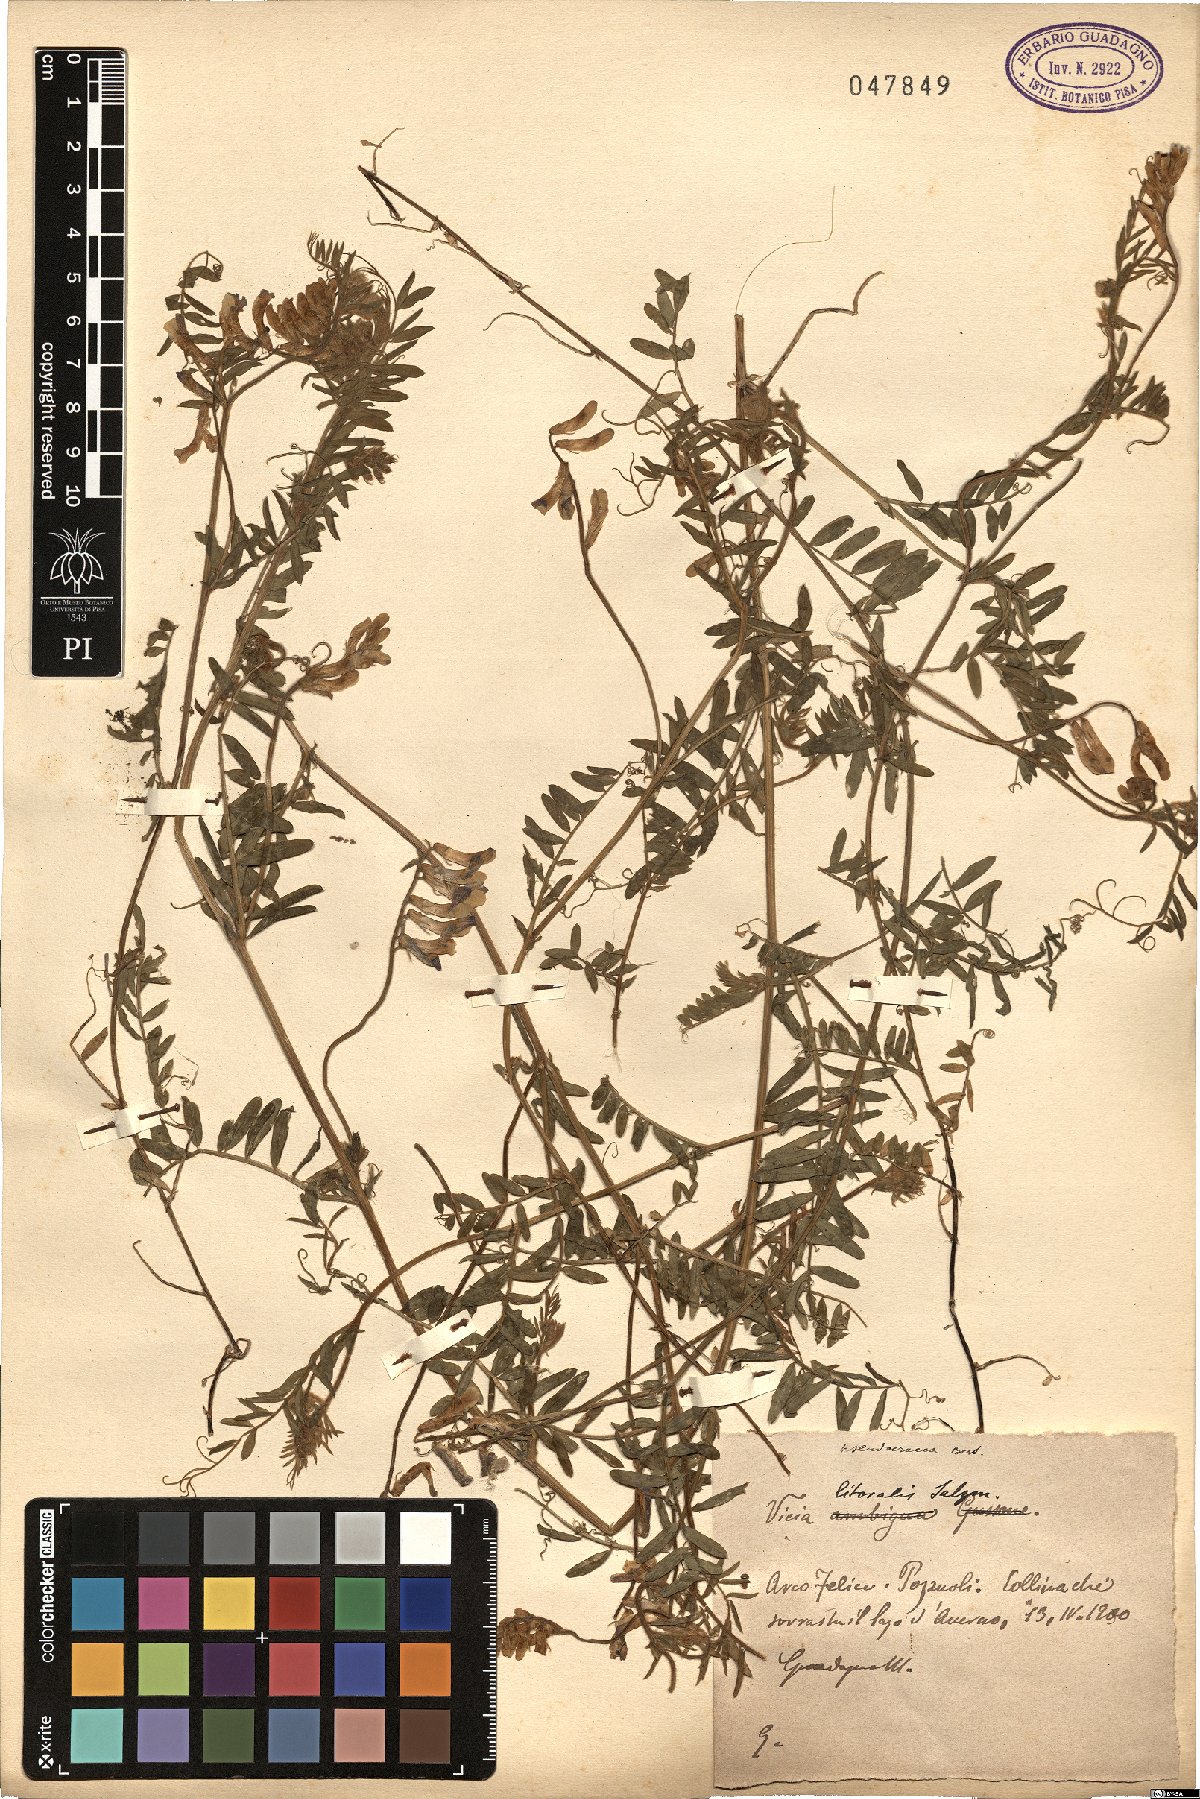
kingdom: Plantae
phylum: Tracheophyta
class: Magnoliopsida
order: Fabales
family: Fabaceae
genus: Vicia
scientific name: Vicia villosa
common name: Fodder vetch
